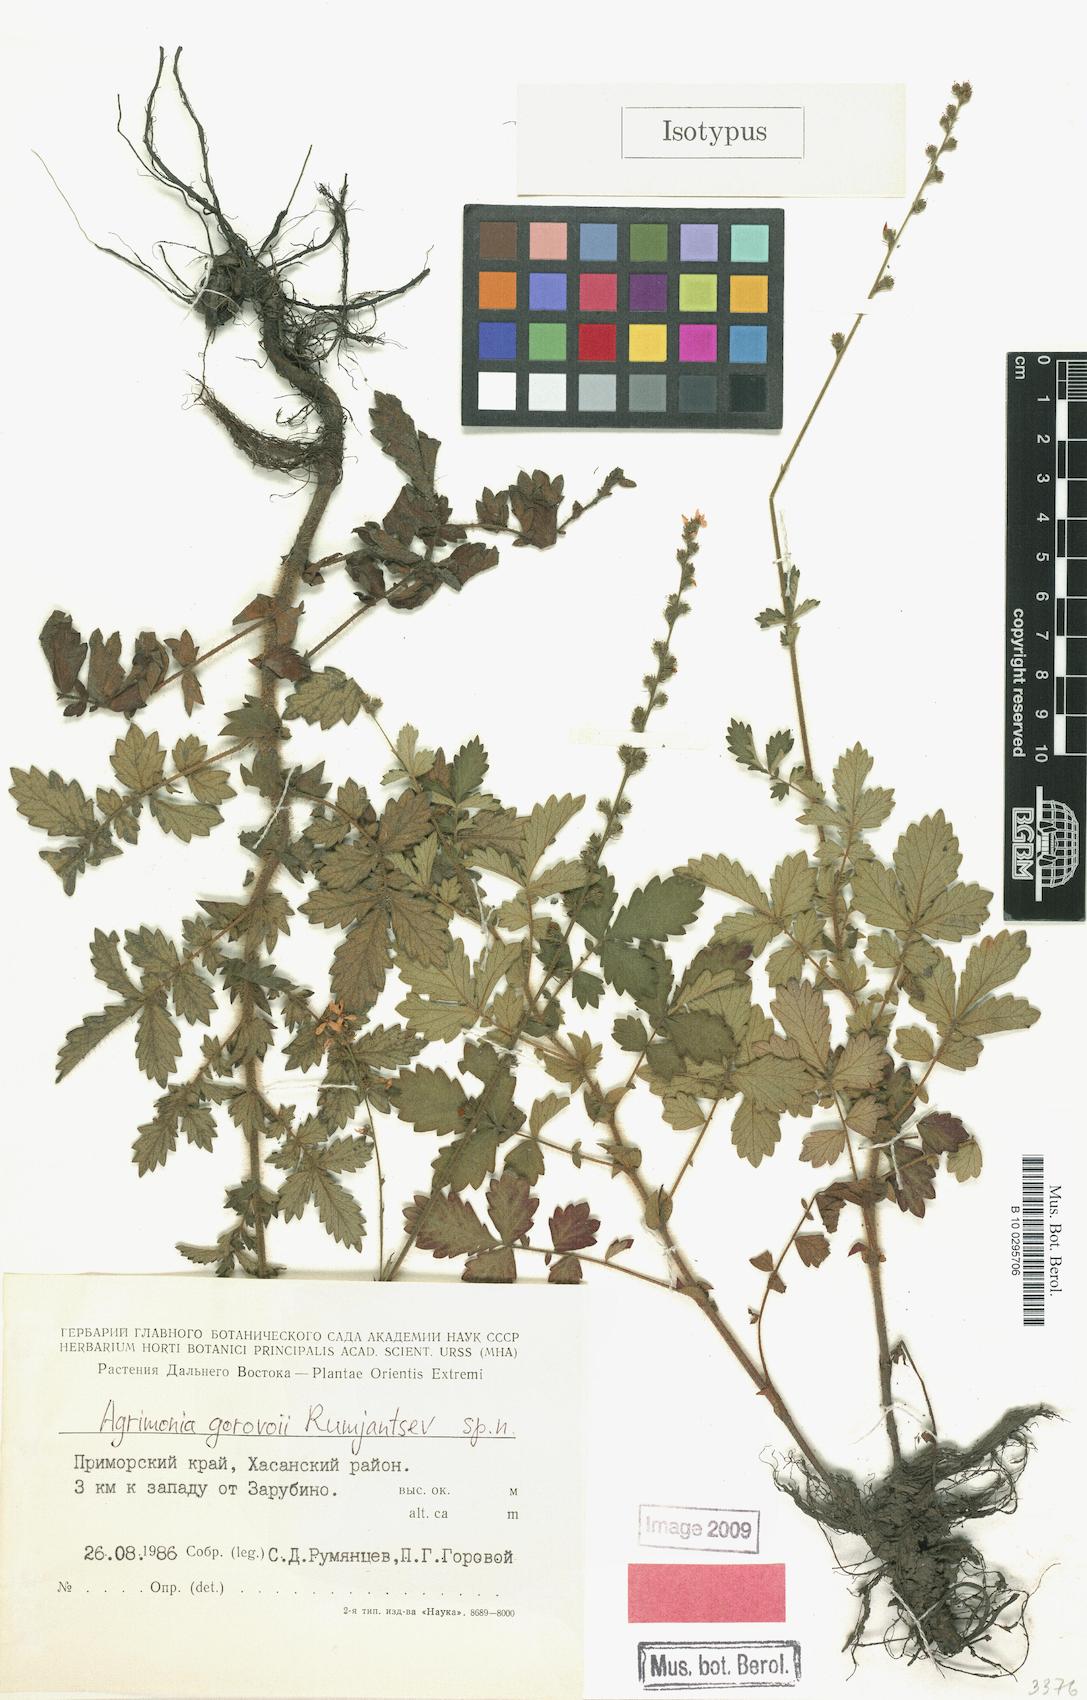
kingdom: Plantae
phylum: Tracheophyta
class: Magnoliopsida
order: Rosales
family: Rosaceae
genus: Agrimonia
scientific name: Agrimonia gorovoii
